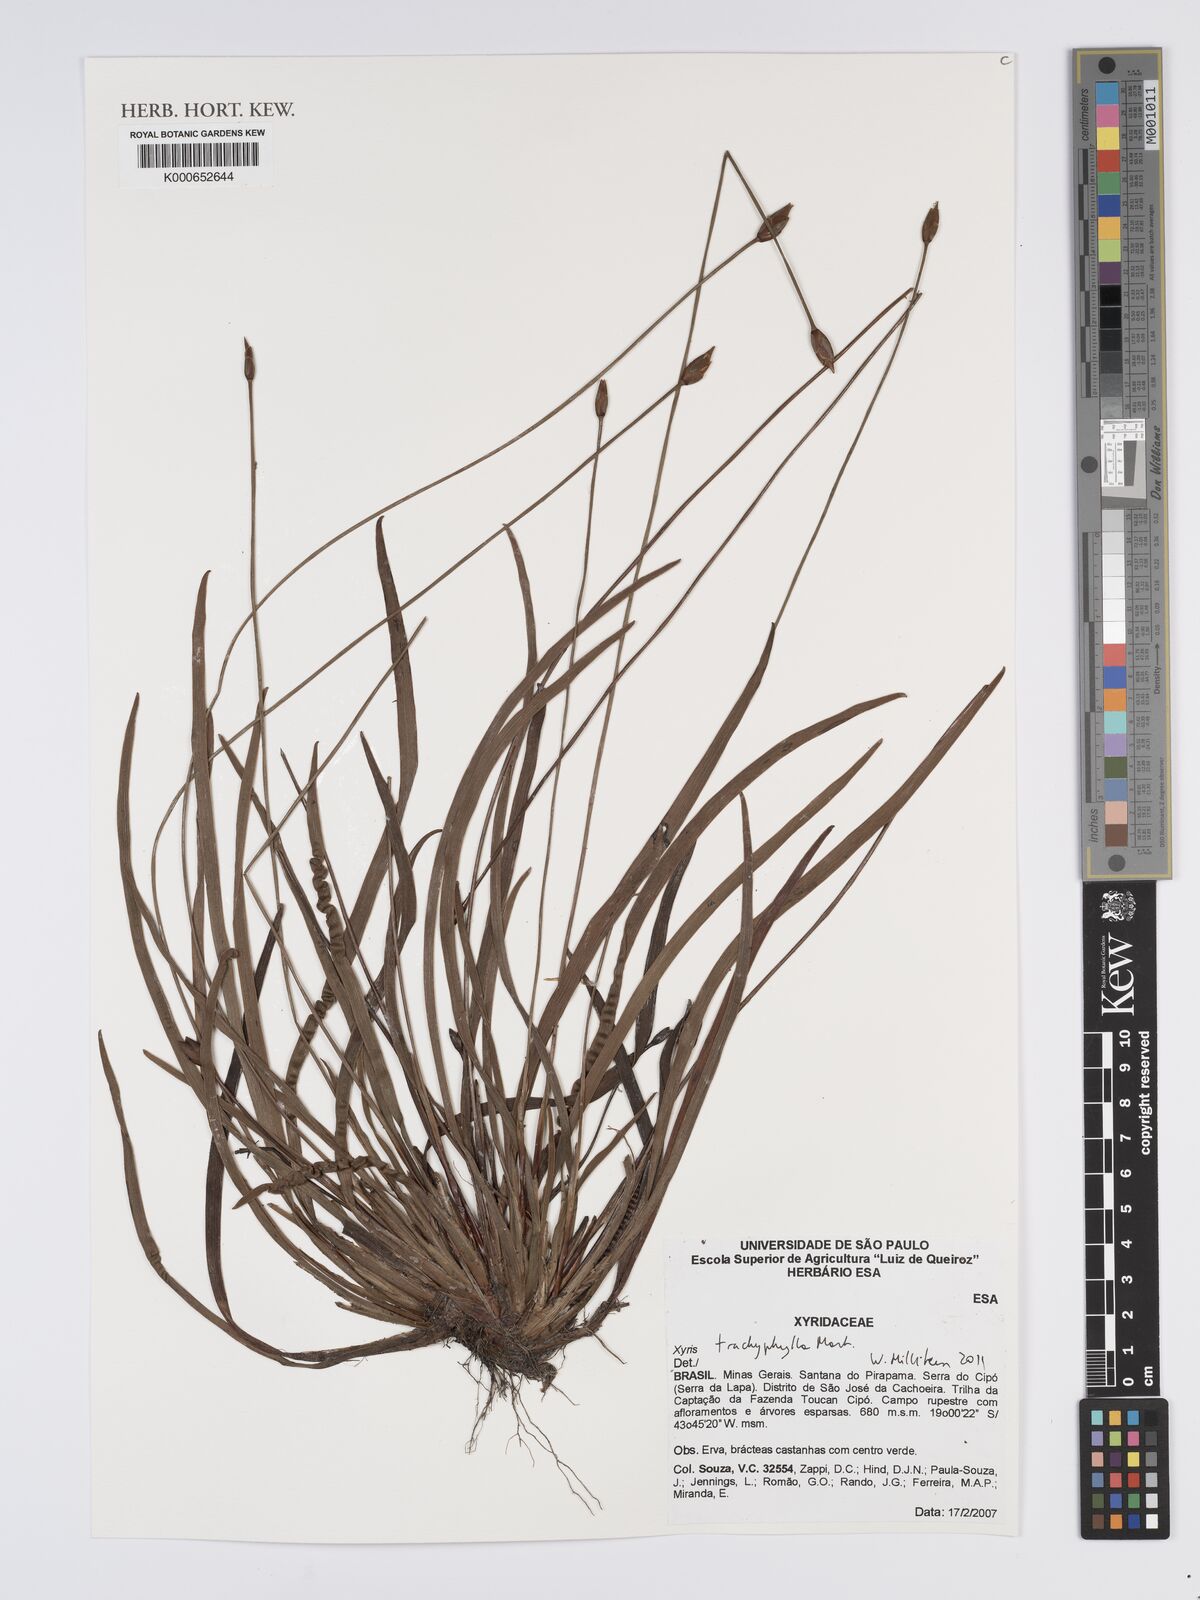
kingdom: Plantae
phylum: Tracheophyta
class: Liliopsida
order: Poales
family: Xyridaceae
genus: Xyris
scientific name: Xyris trachyphylla
